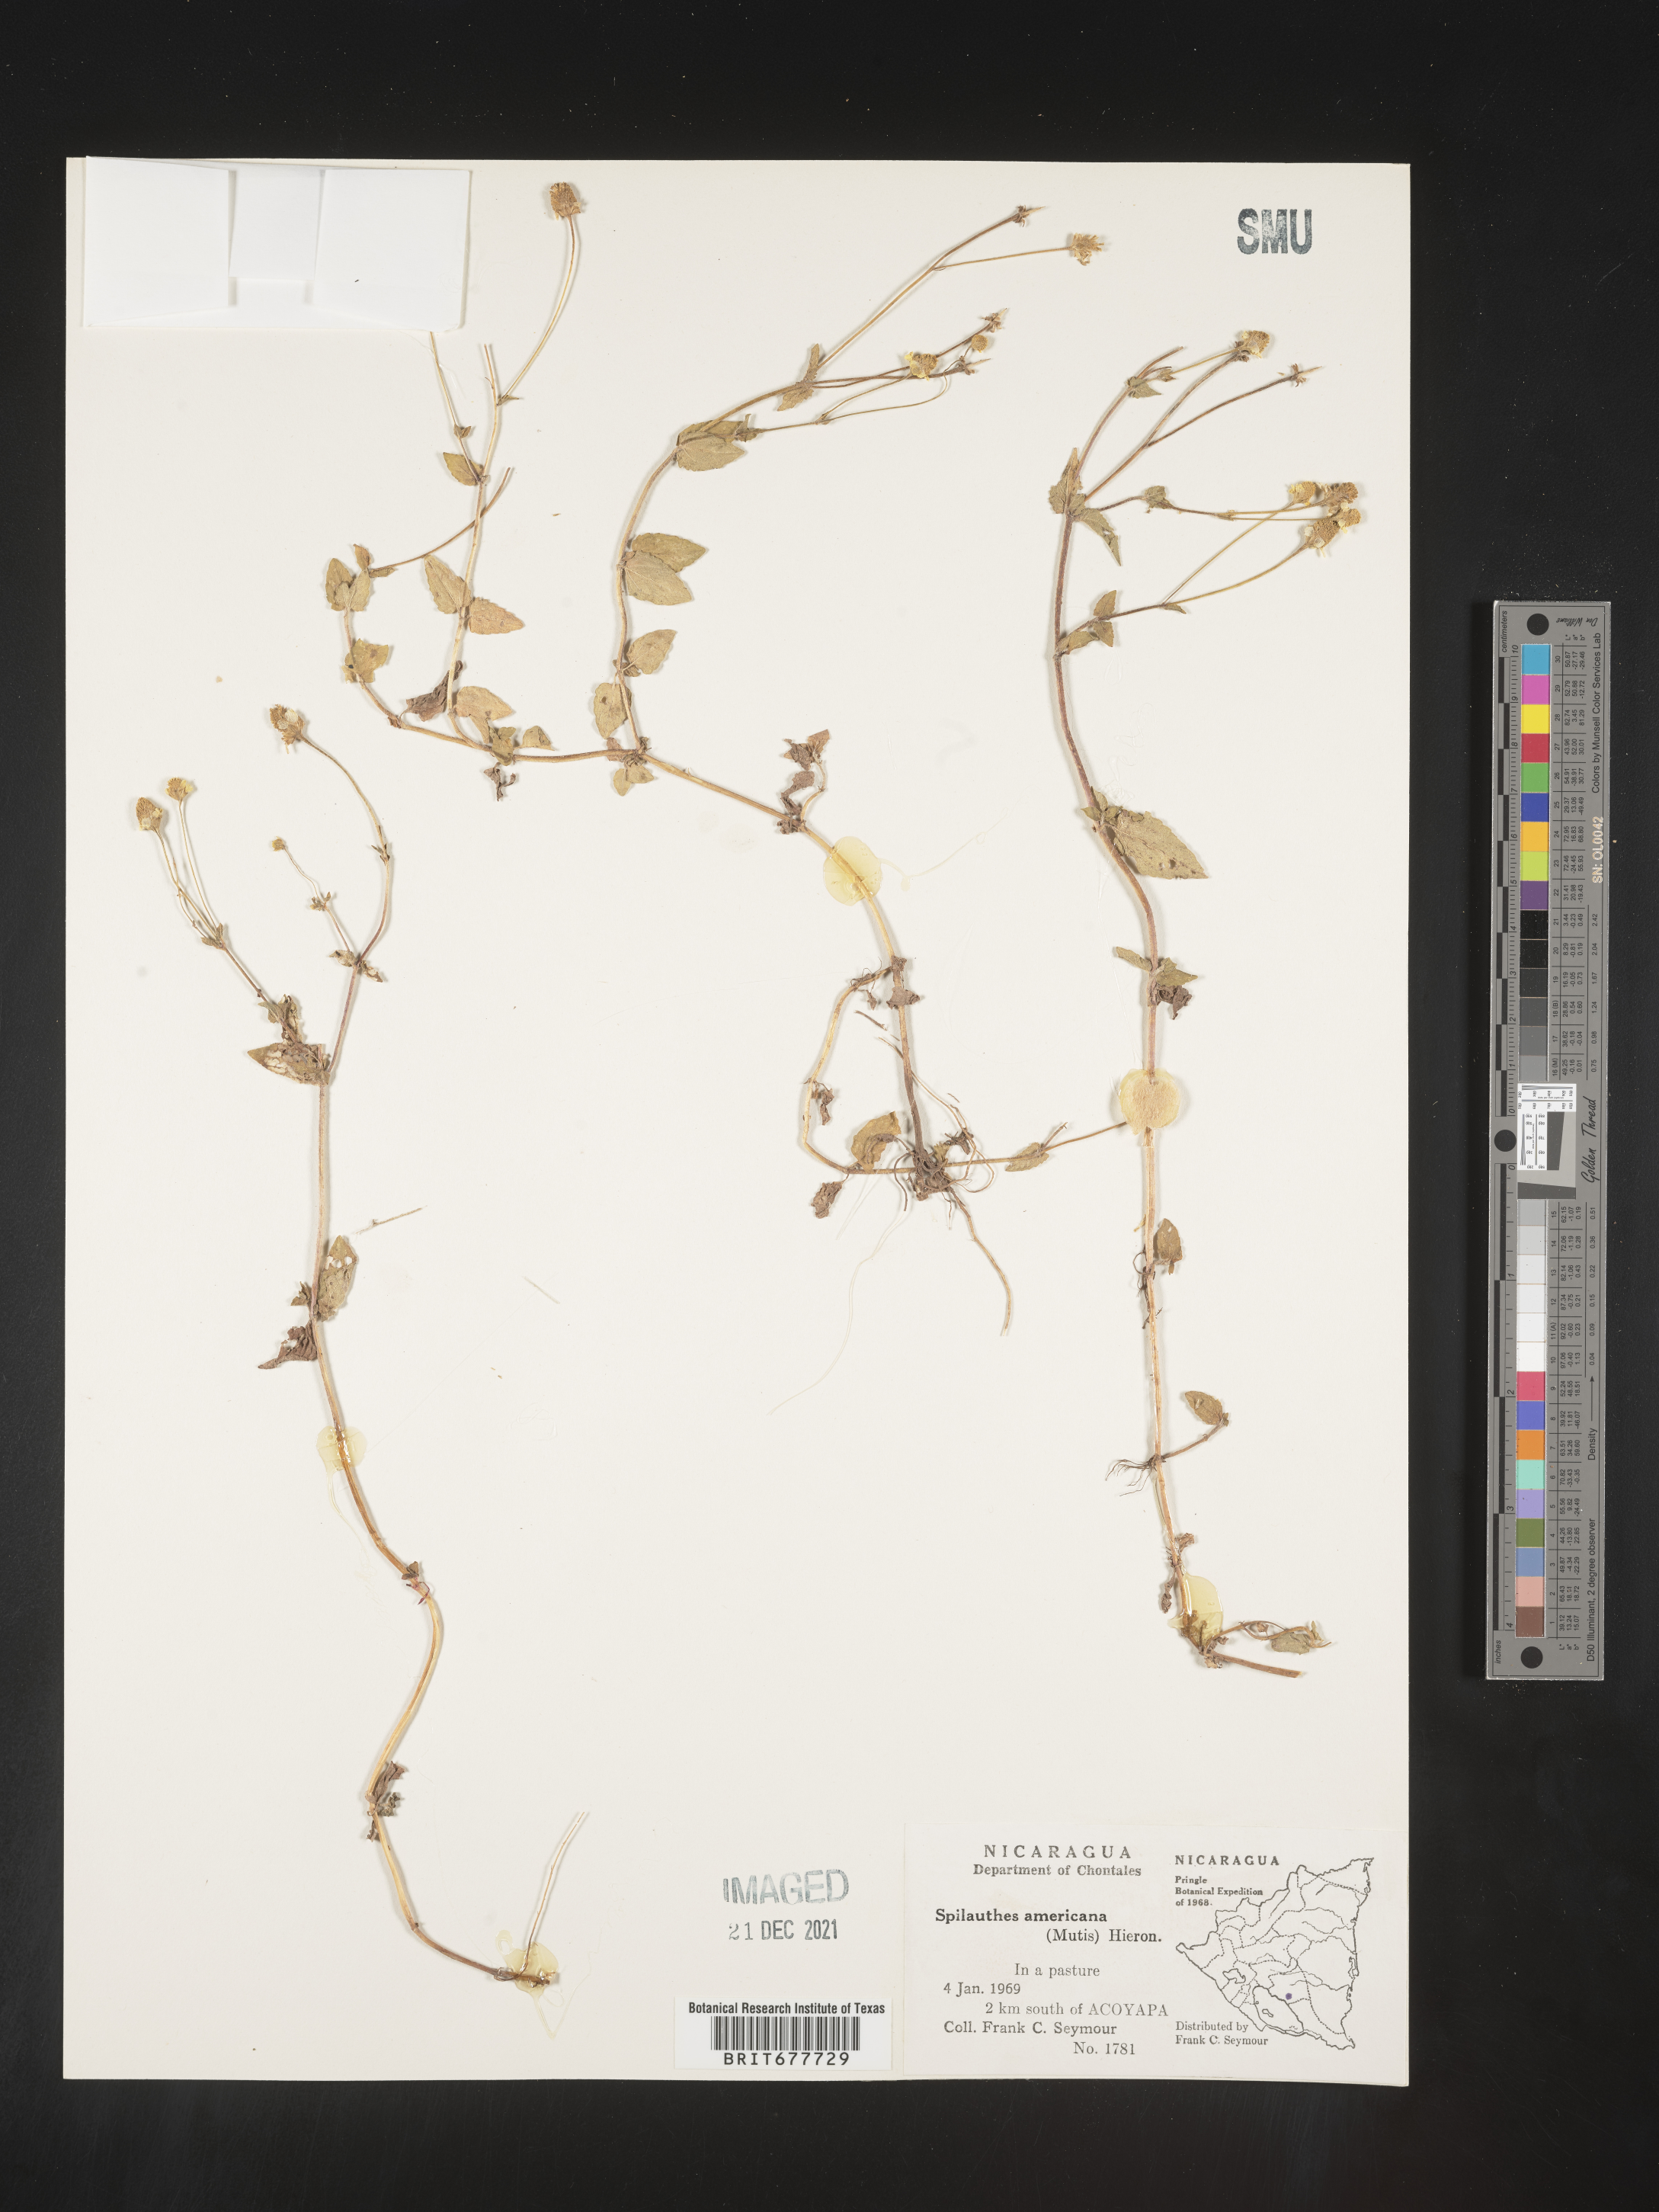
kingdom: Plantae
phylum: Tracheophyta
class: Magnoliopsida
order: Asterales
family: Asteraceae
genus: Spilanthes
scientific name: Spilanthes
